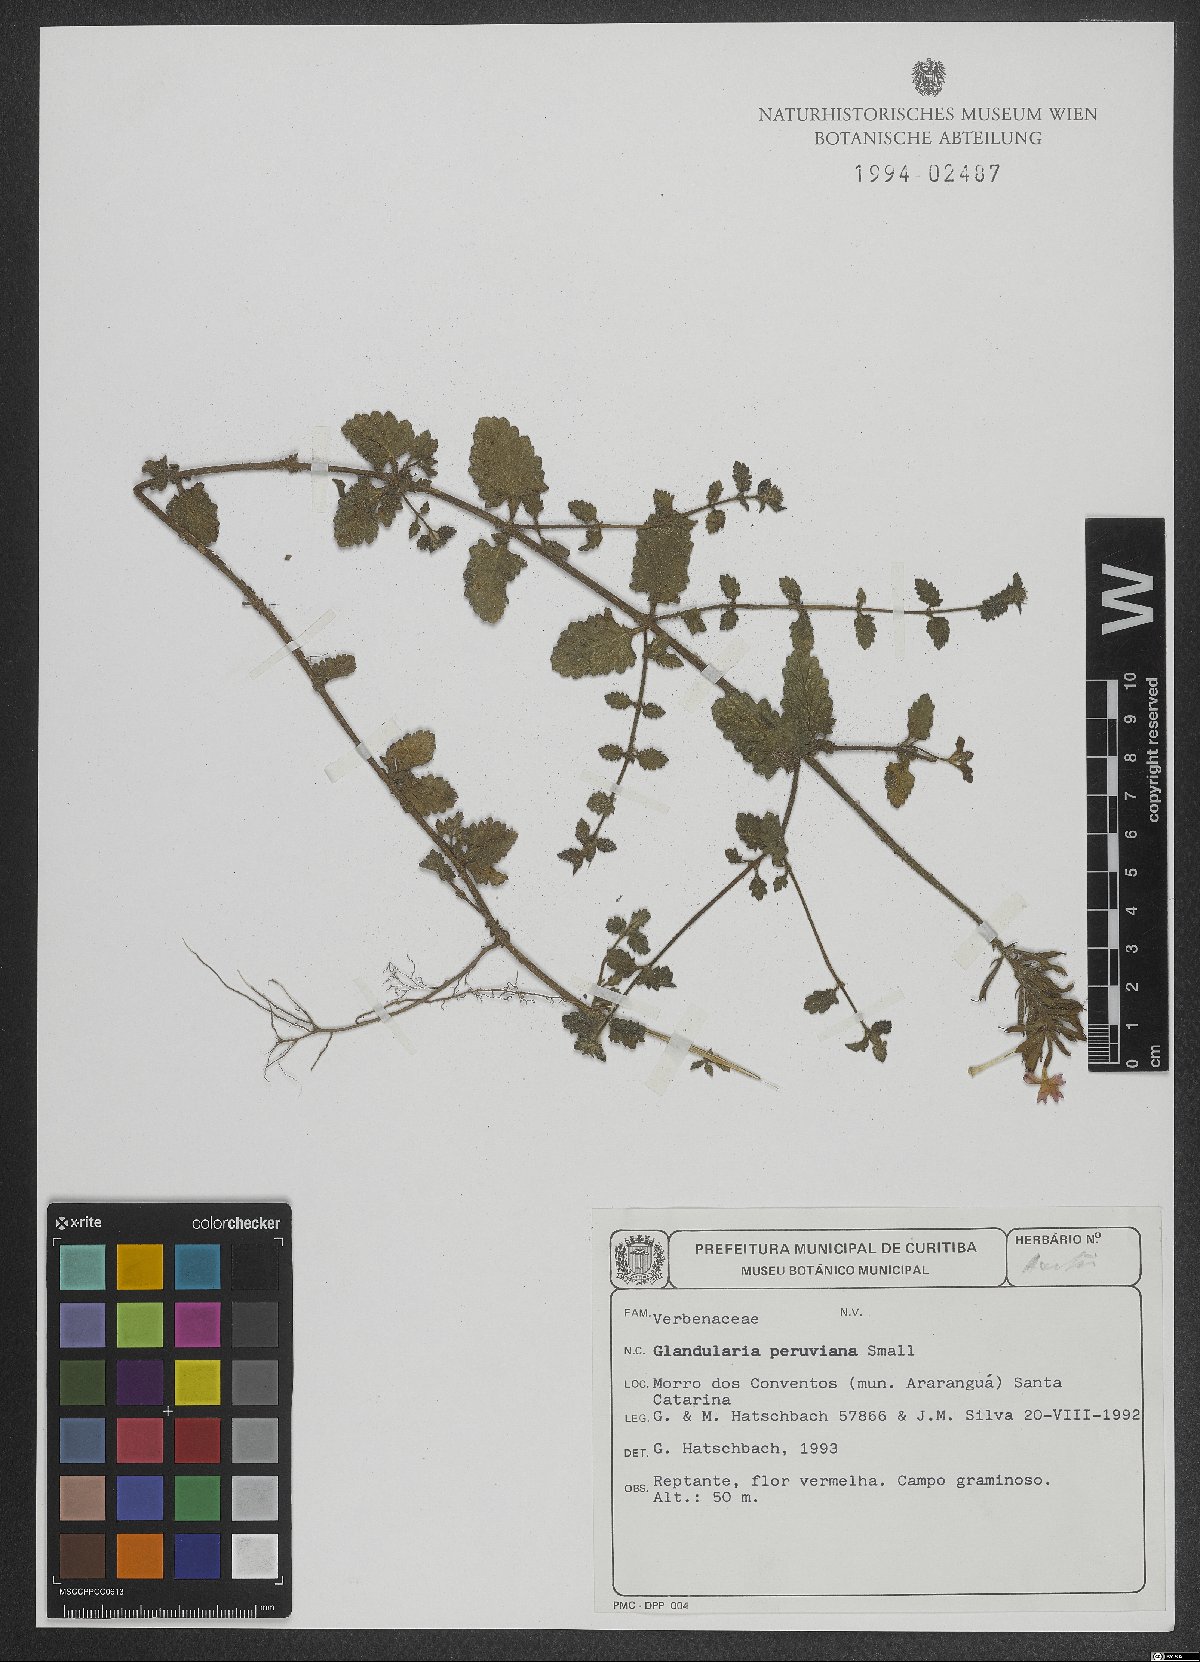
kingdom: Plantae
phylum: Tracheophyta
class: Magnoliopsida
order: Lamiales
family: Verbenaceae
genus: Verbena
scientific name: Verbena peruviana
